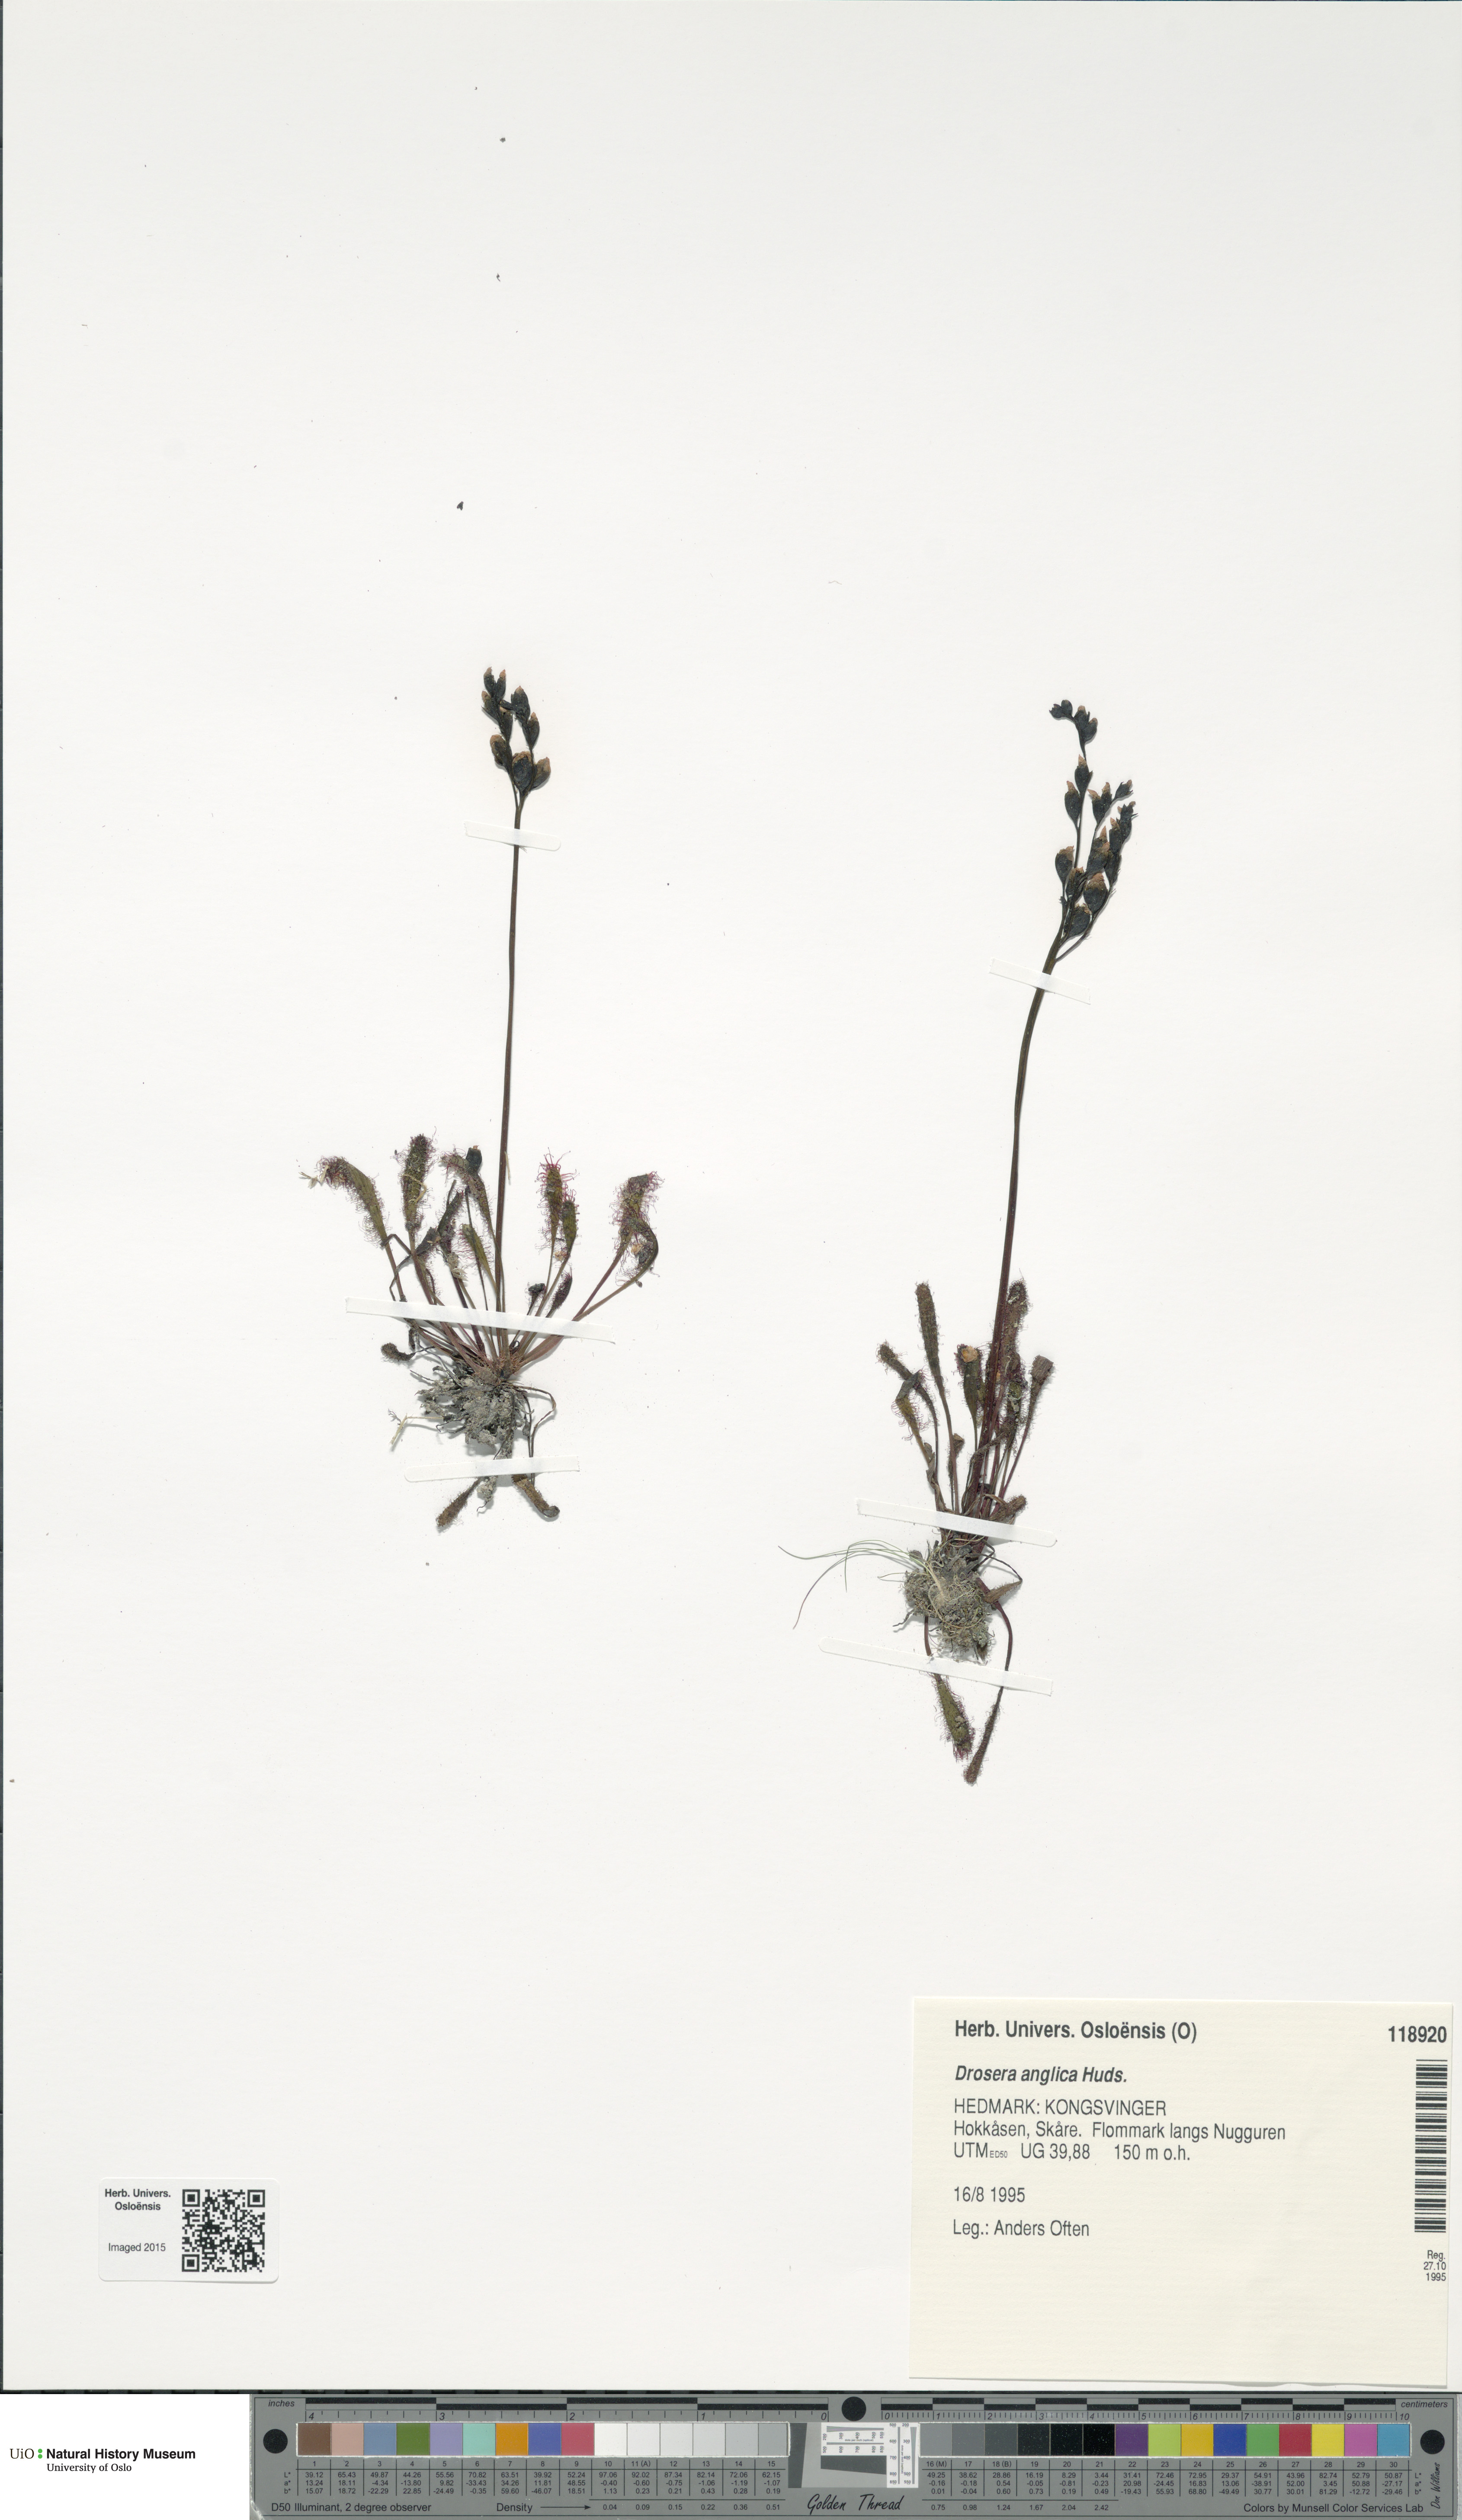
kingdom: Plantae
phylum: Tracheophyta
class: Magnoliopsida
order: Caryophyllales
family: Droseraceae
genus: Drosera
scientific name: Drosera anglica
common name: Great sundew
